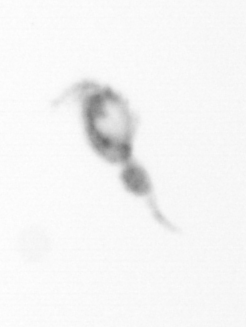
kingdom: Animalia
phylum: Arthropoda
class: Copepoda
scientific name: Copepoda
